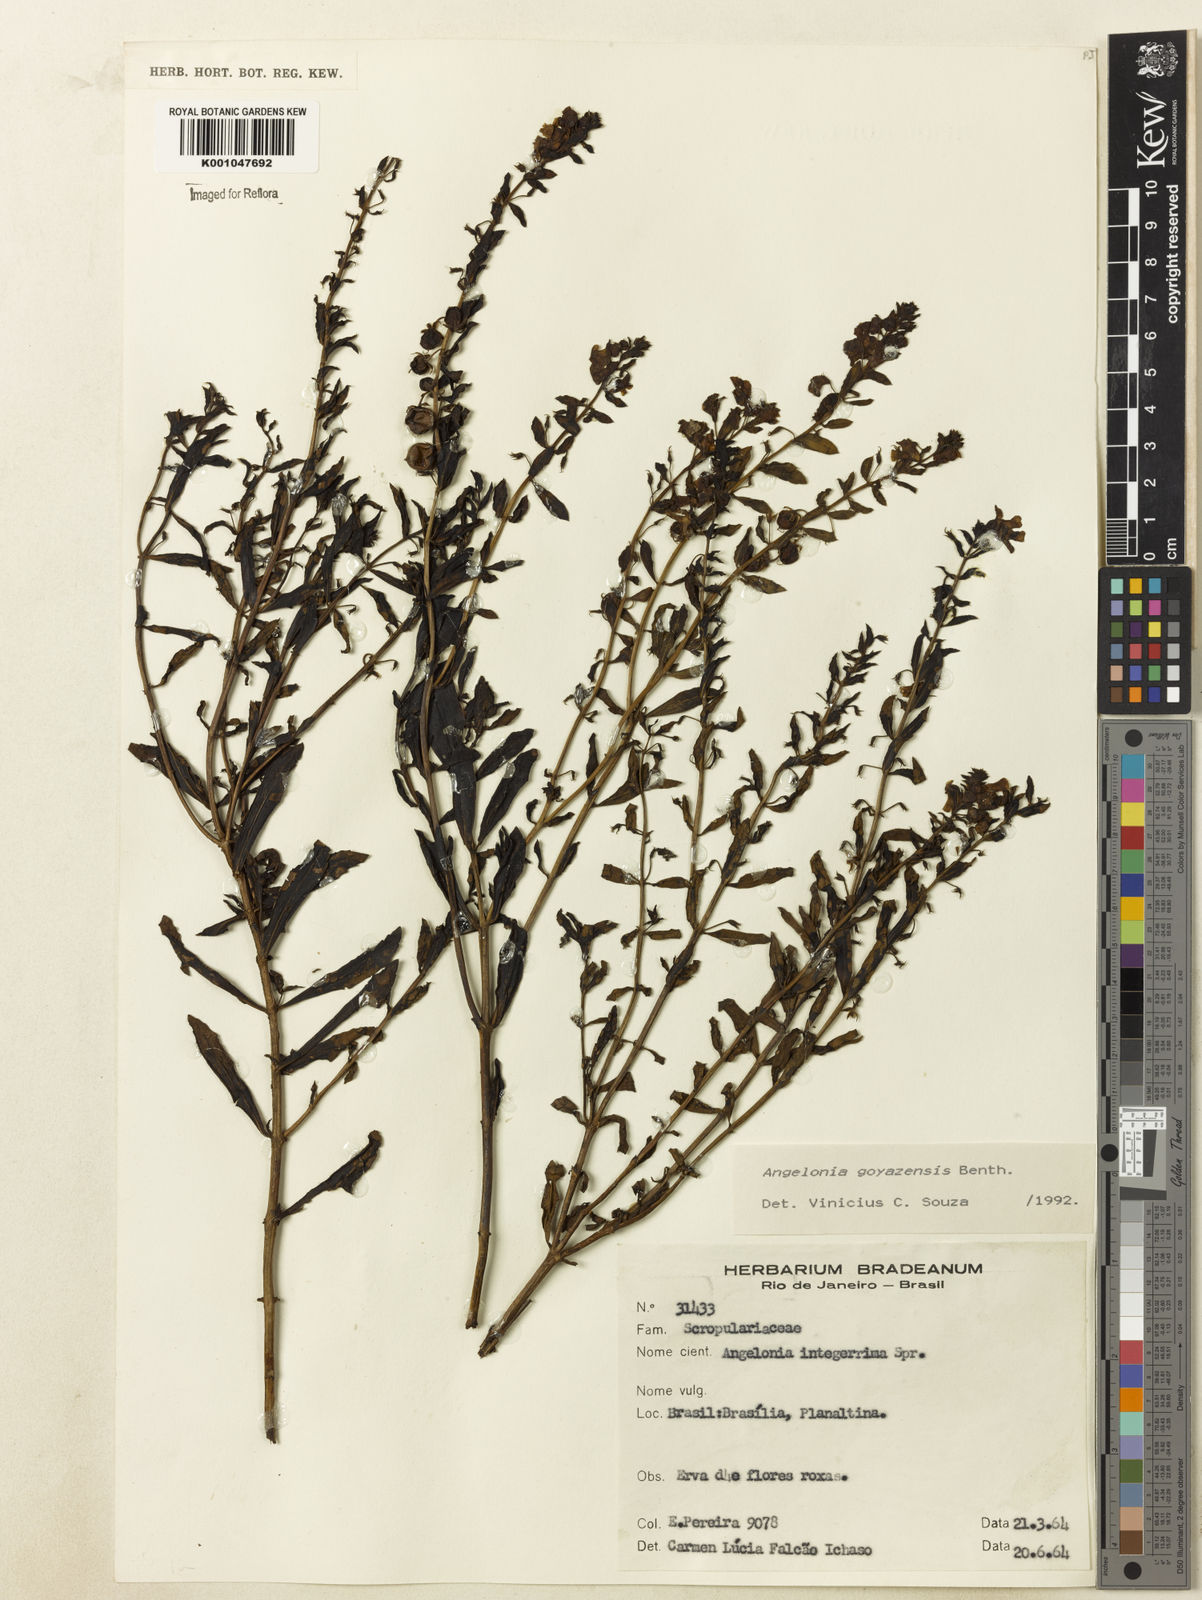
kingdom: Plantae
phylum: Tracheophyta
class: Magnoliopsida
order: Lamiales
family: Plantaginaceae
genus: Angelonia
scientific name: Angelonia goyazensis
